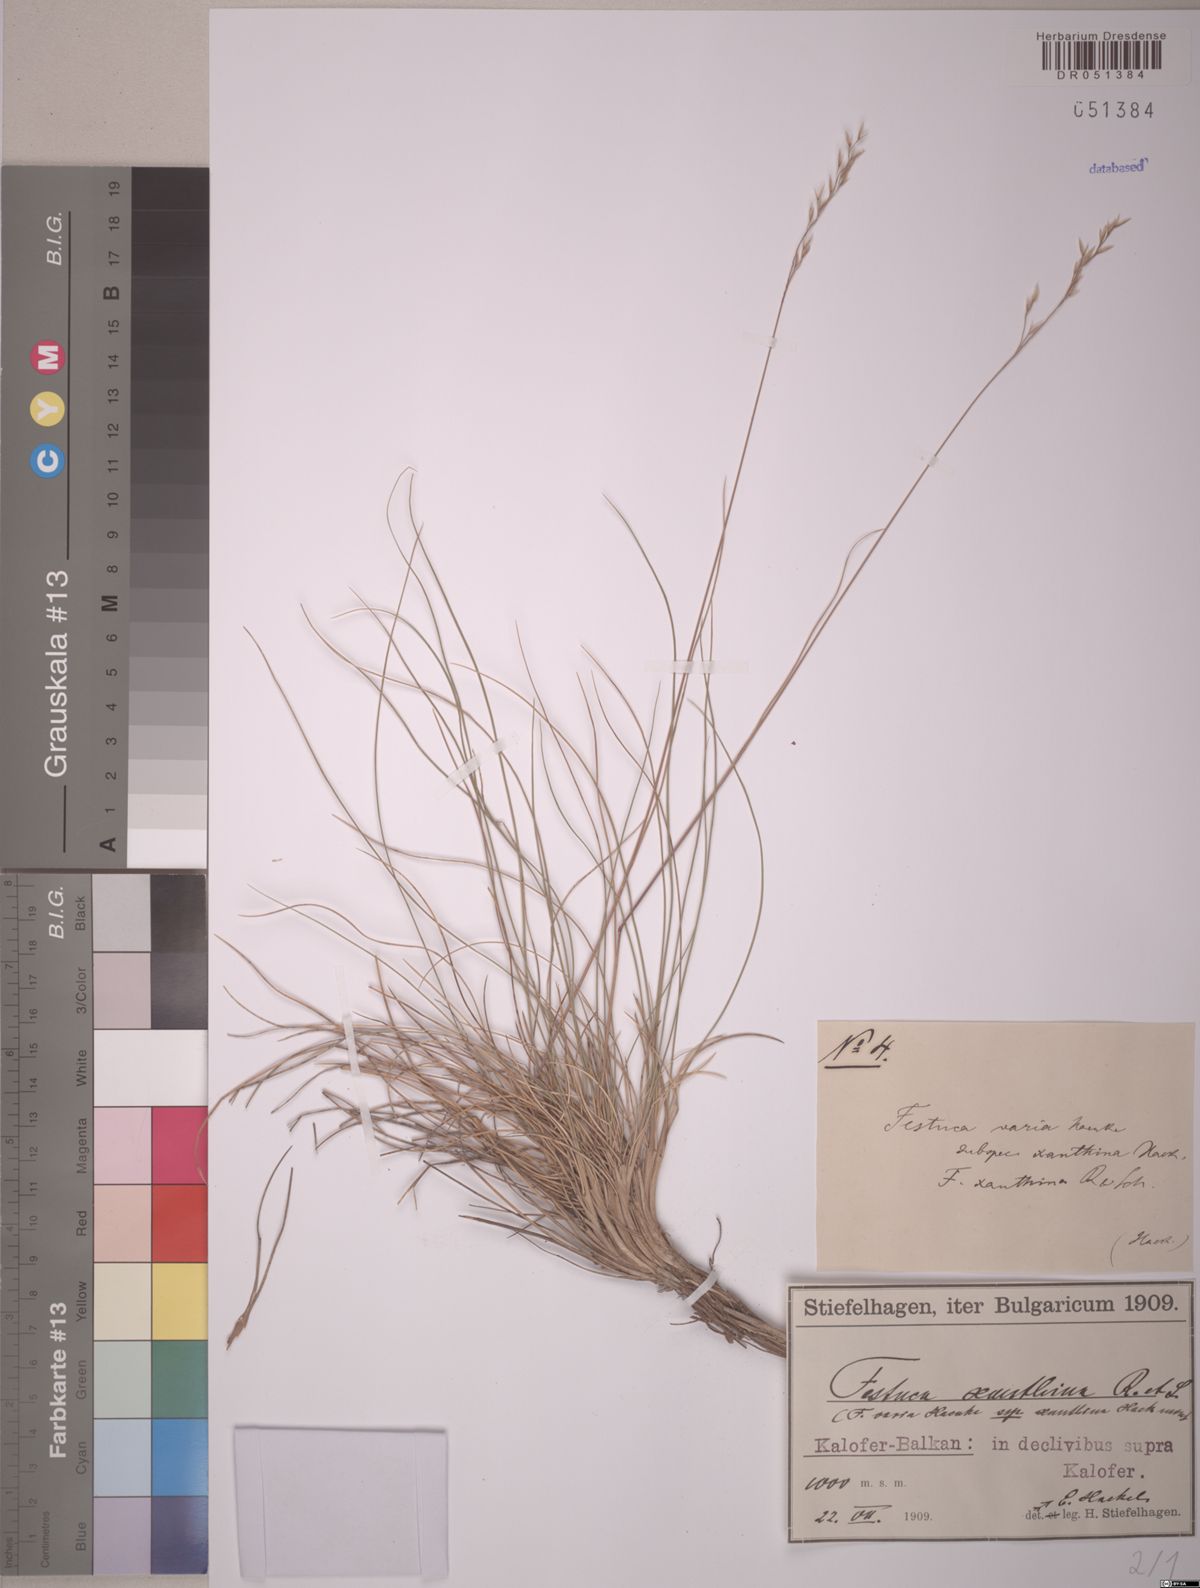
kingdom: Plantae
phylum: Tracheophyta
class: Liliopsida
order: Poales
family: Poaceae
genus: Festuca
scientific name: Festuca xanthina
